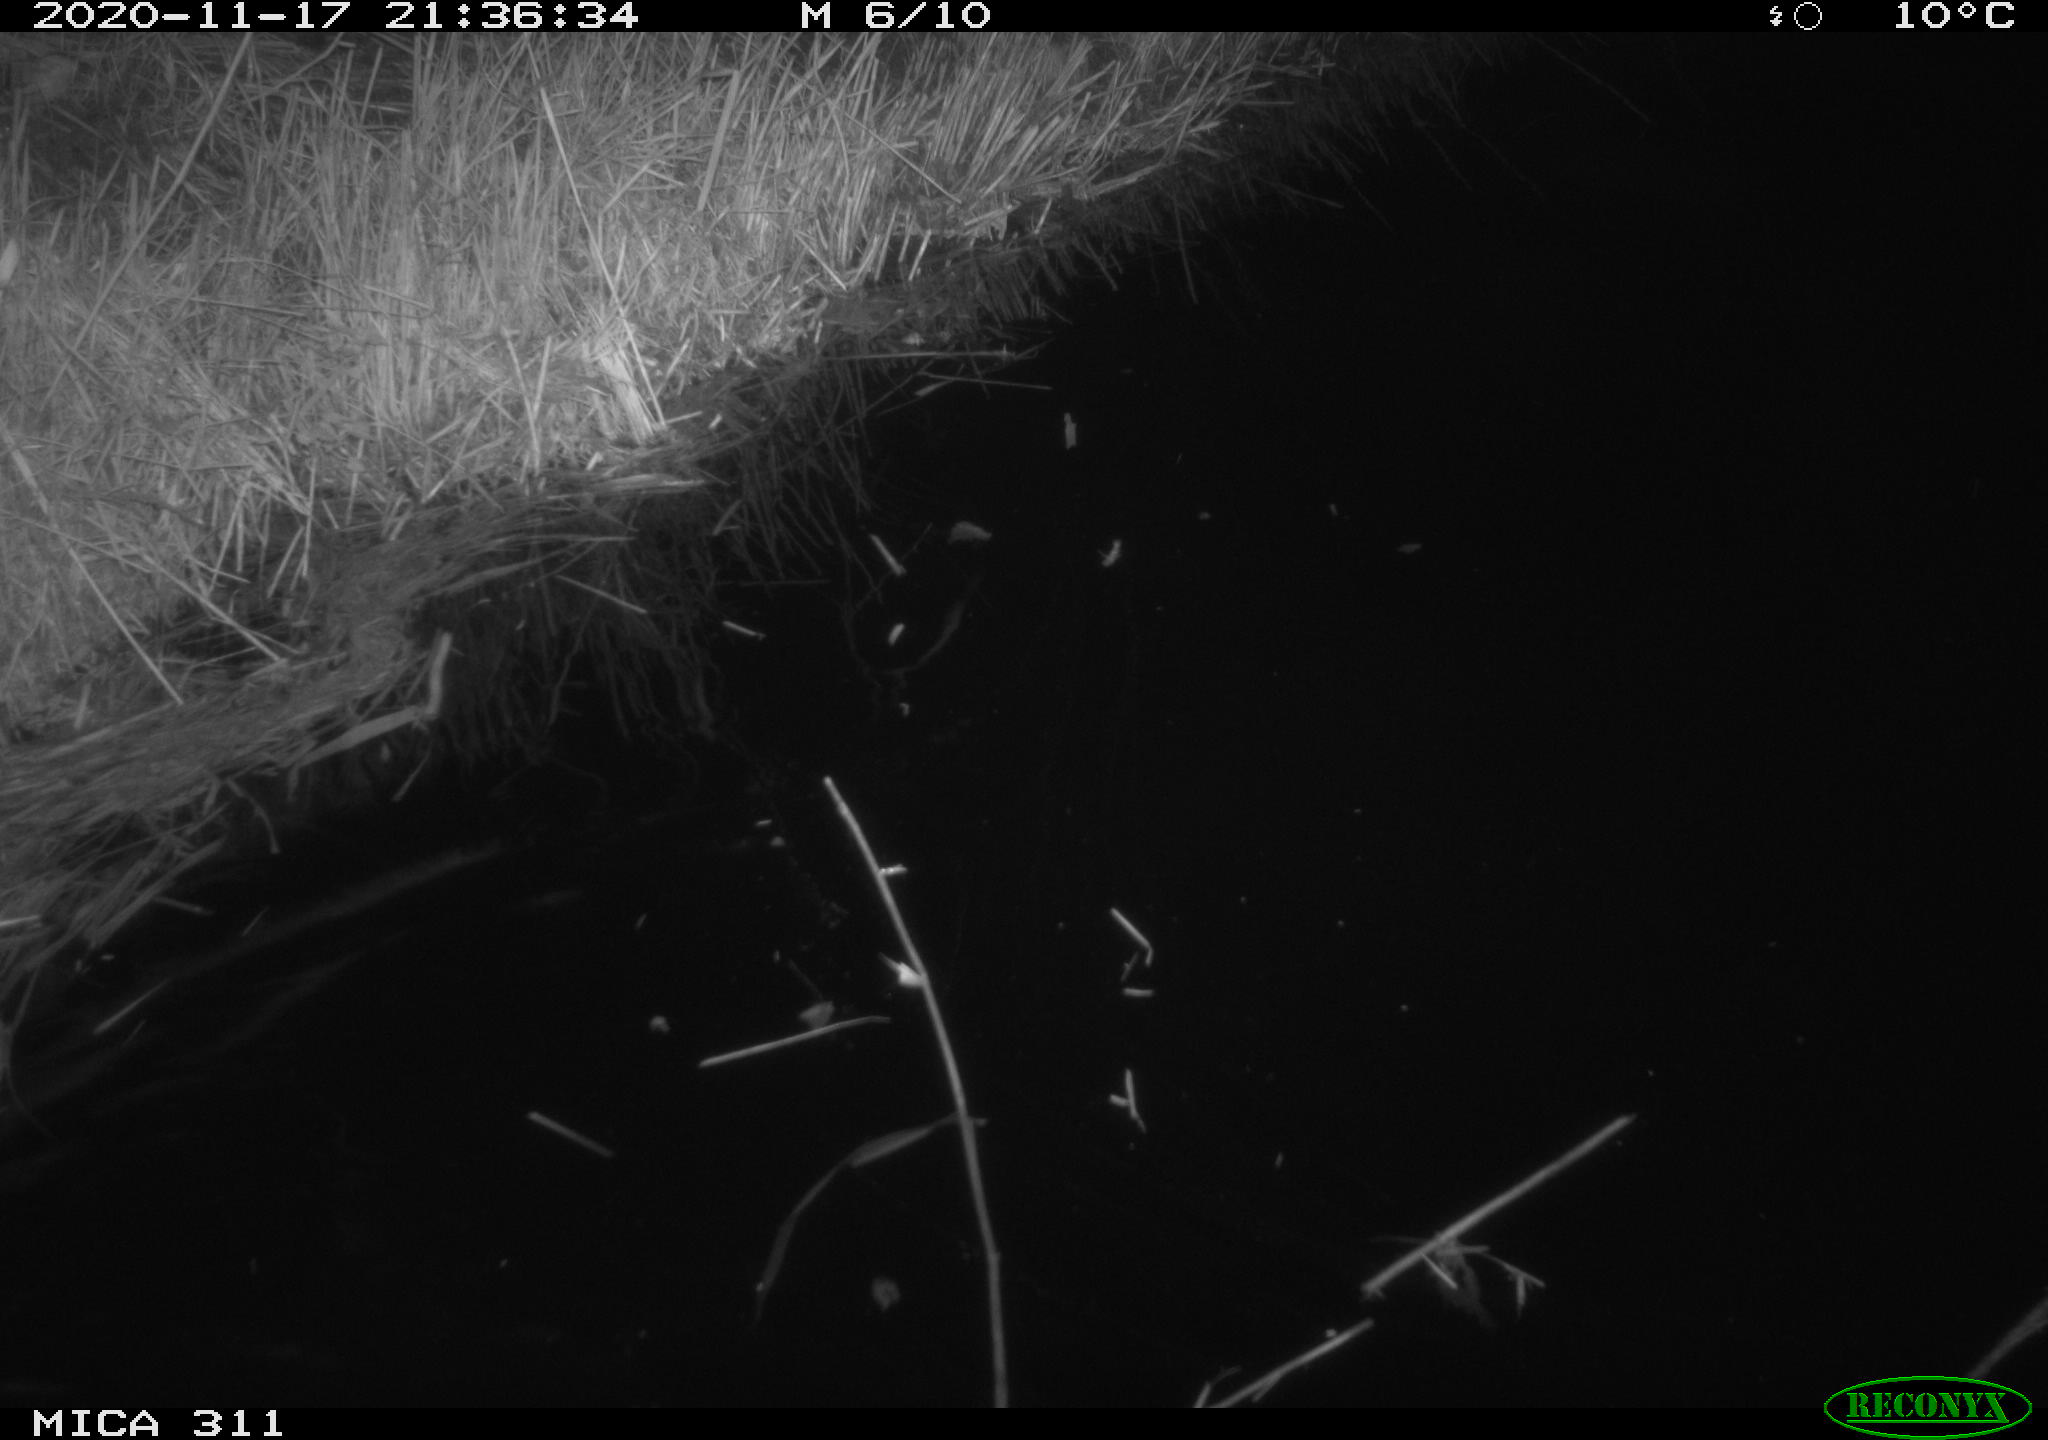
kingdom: Animalia
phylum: Chordata
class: Mammalia
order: Rodentia
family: Muridae
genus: Rattus
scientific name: Rattus norvegicus
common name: Brown rat
